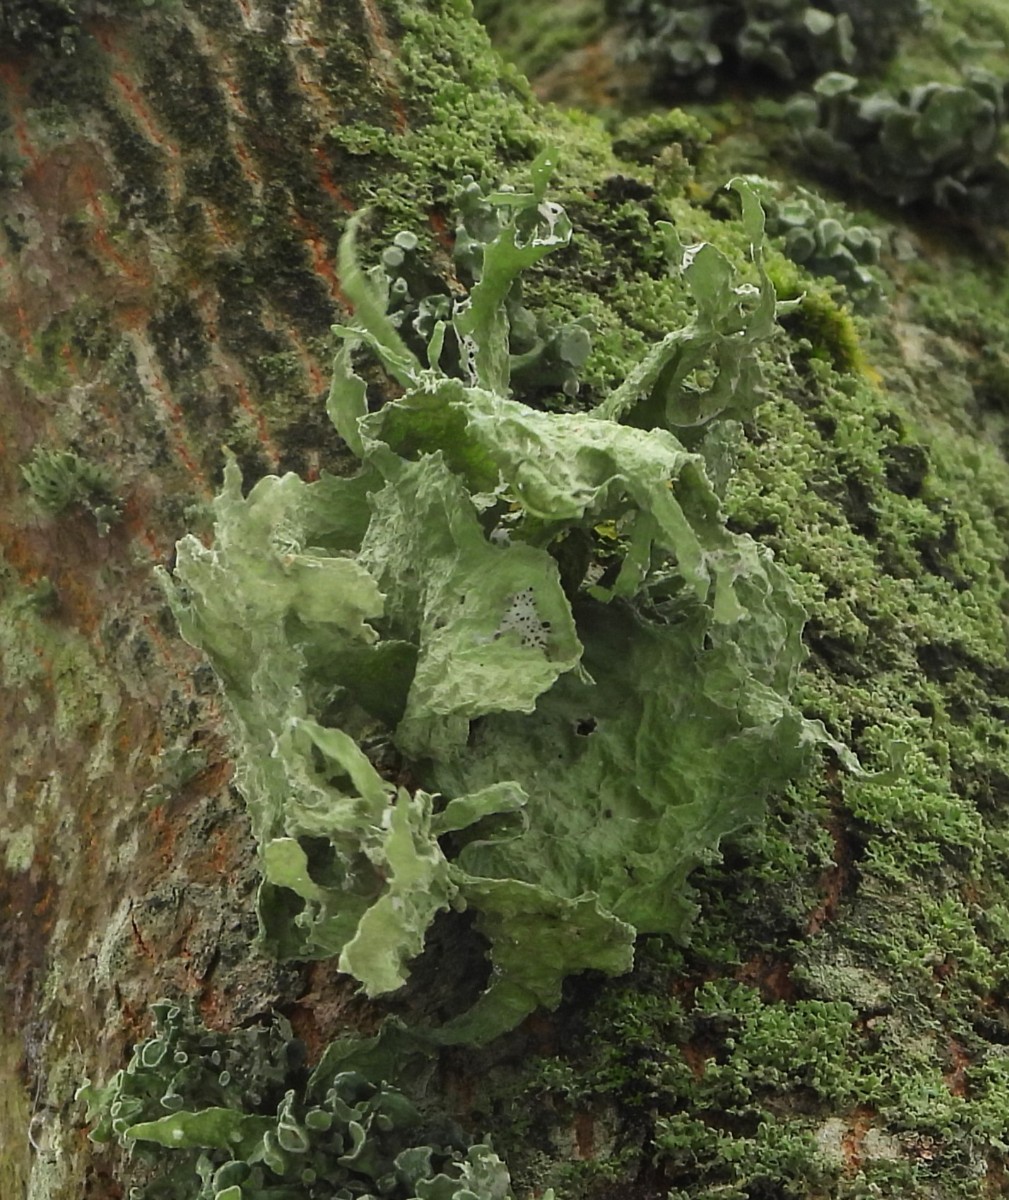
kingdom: Fungi
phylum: Ascomycota
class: Lecanoromycetes
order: Lecanorales
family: Ramalinaceae
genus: Ramalina
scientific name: Ramalina fraxinea
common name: stor grenlav
